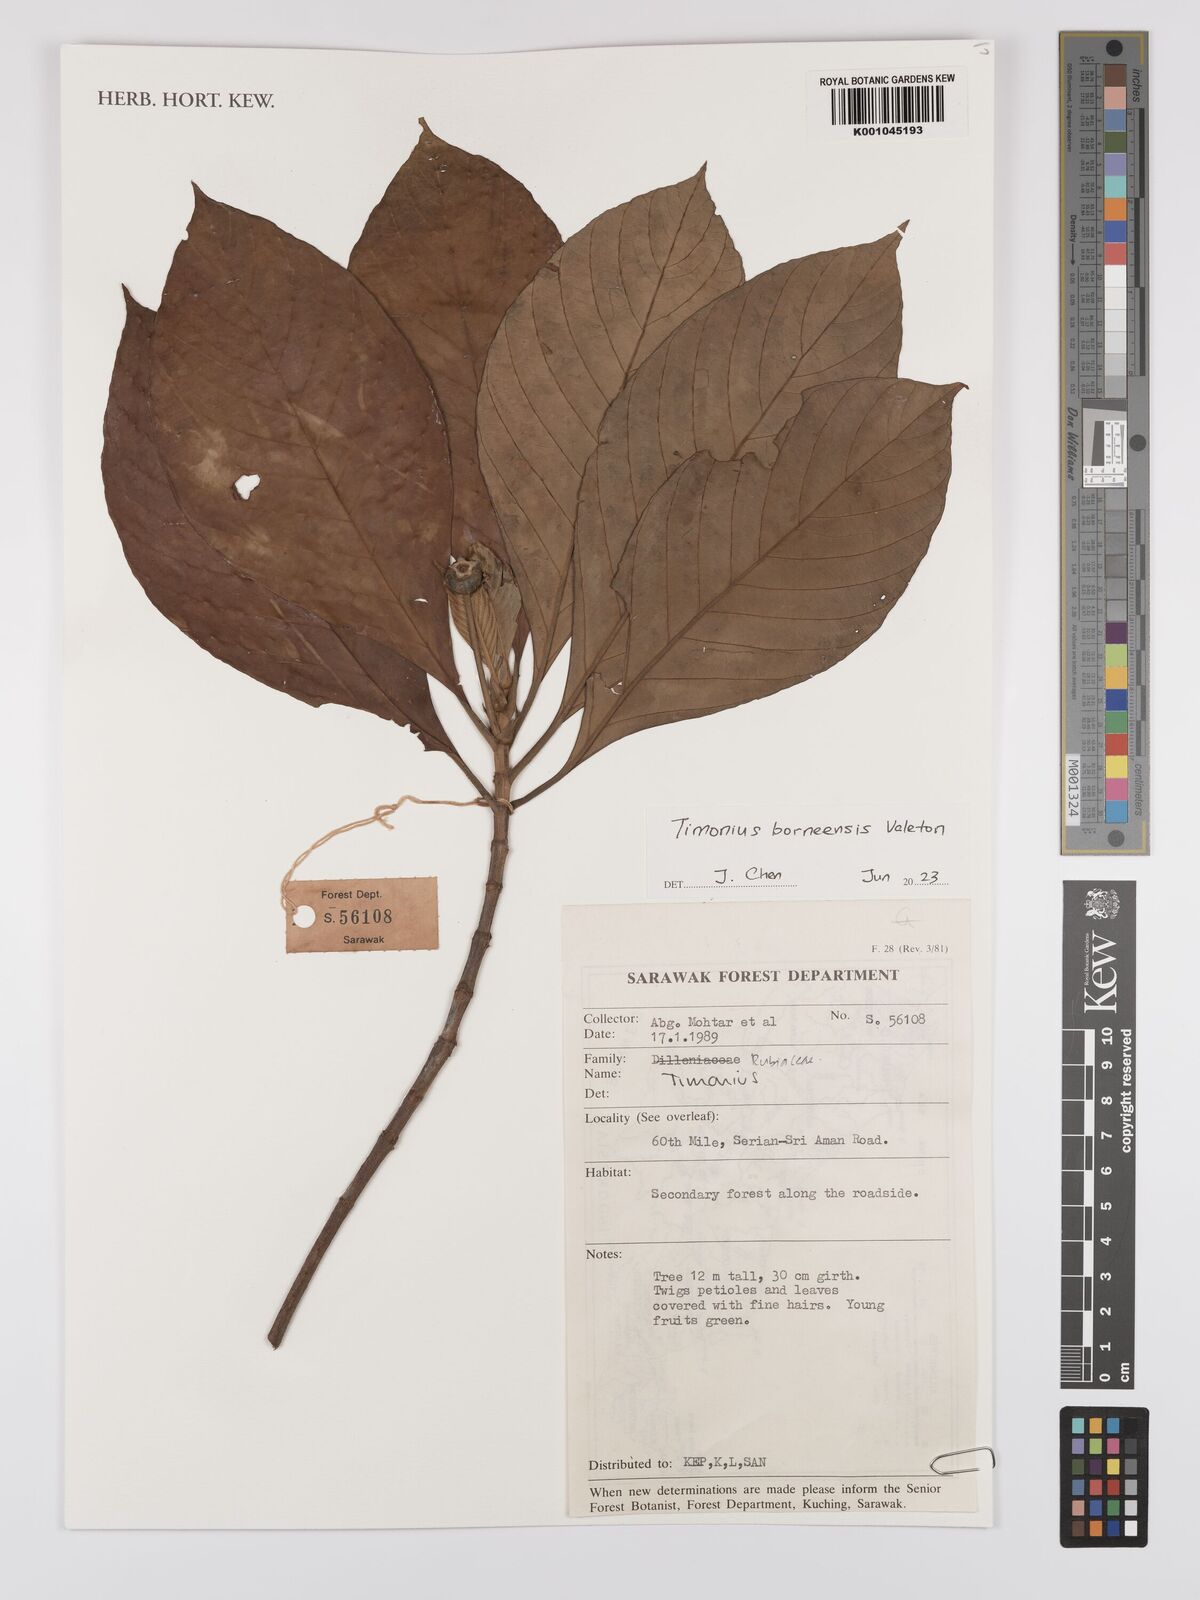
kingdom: Plantae
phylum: Tracheophyta
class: Magnoliopsida
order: Gentianales
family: Rubiaceae
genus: Timonius
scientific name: Timonius
